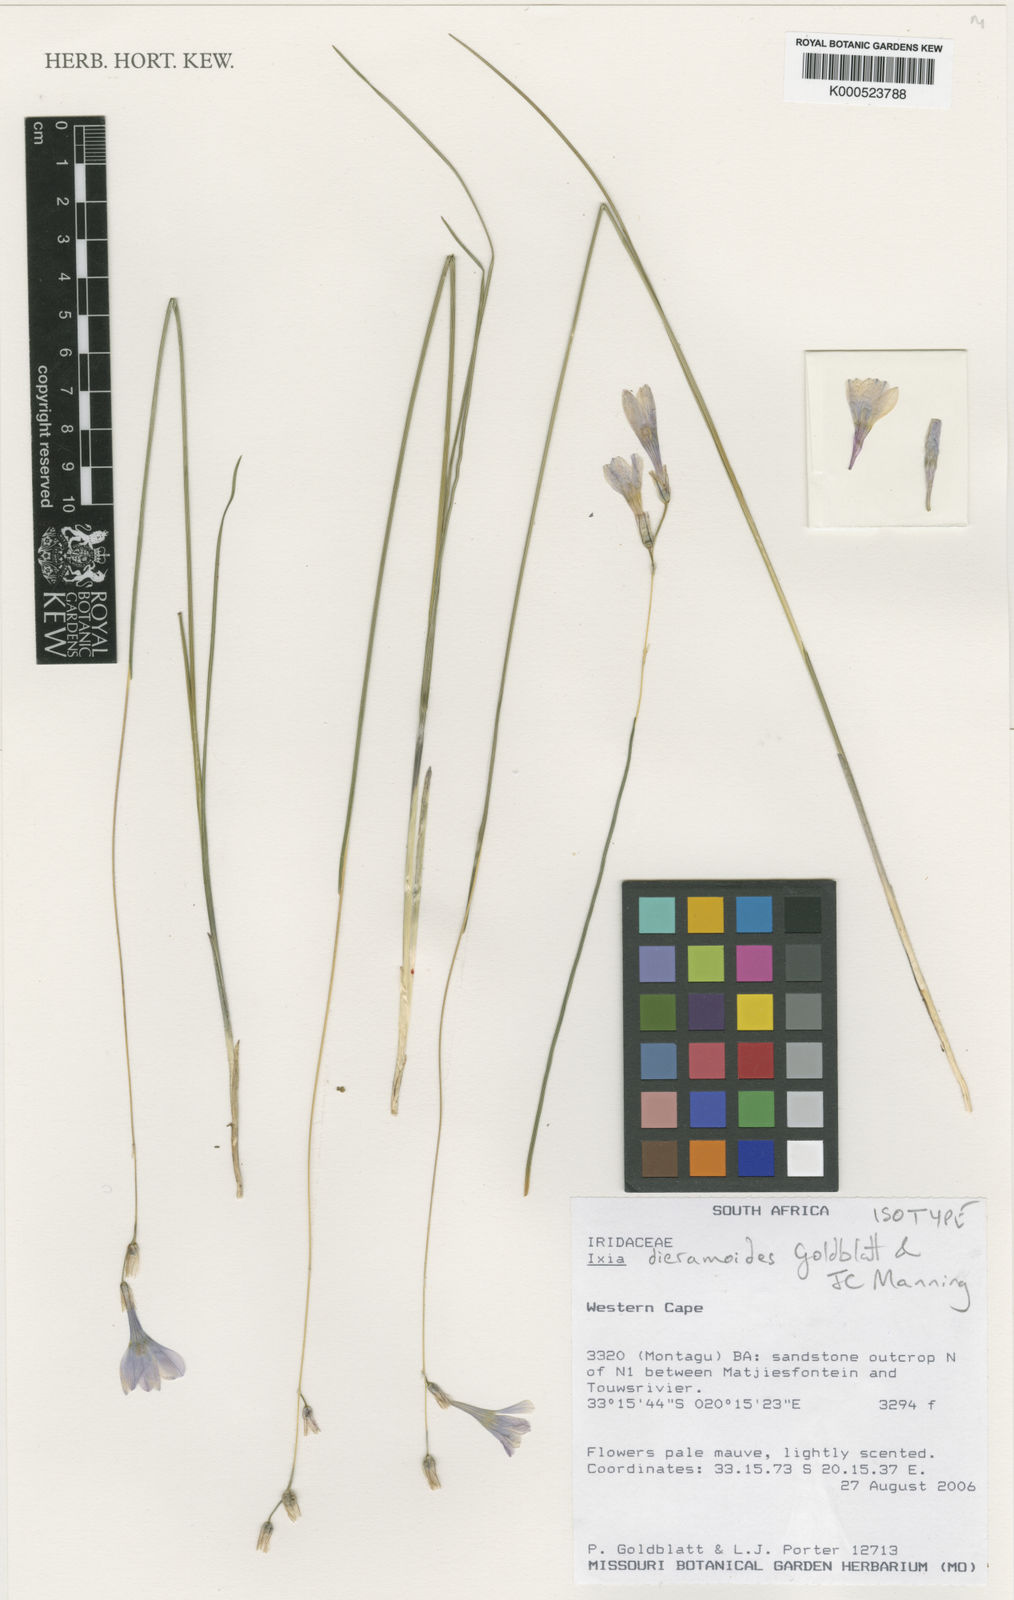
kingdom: Plantae
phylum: Tracheophyta
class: Liliopsida
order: Asparagales
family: Iridaceae
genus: Ixia
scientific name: Ixia dieramoides
